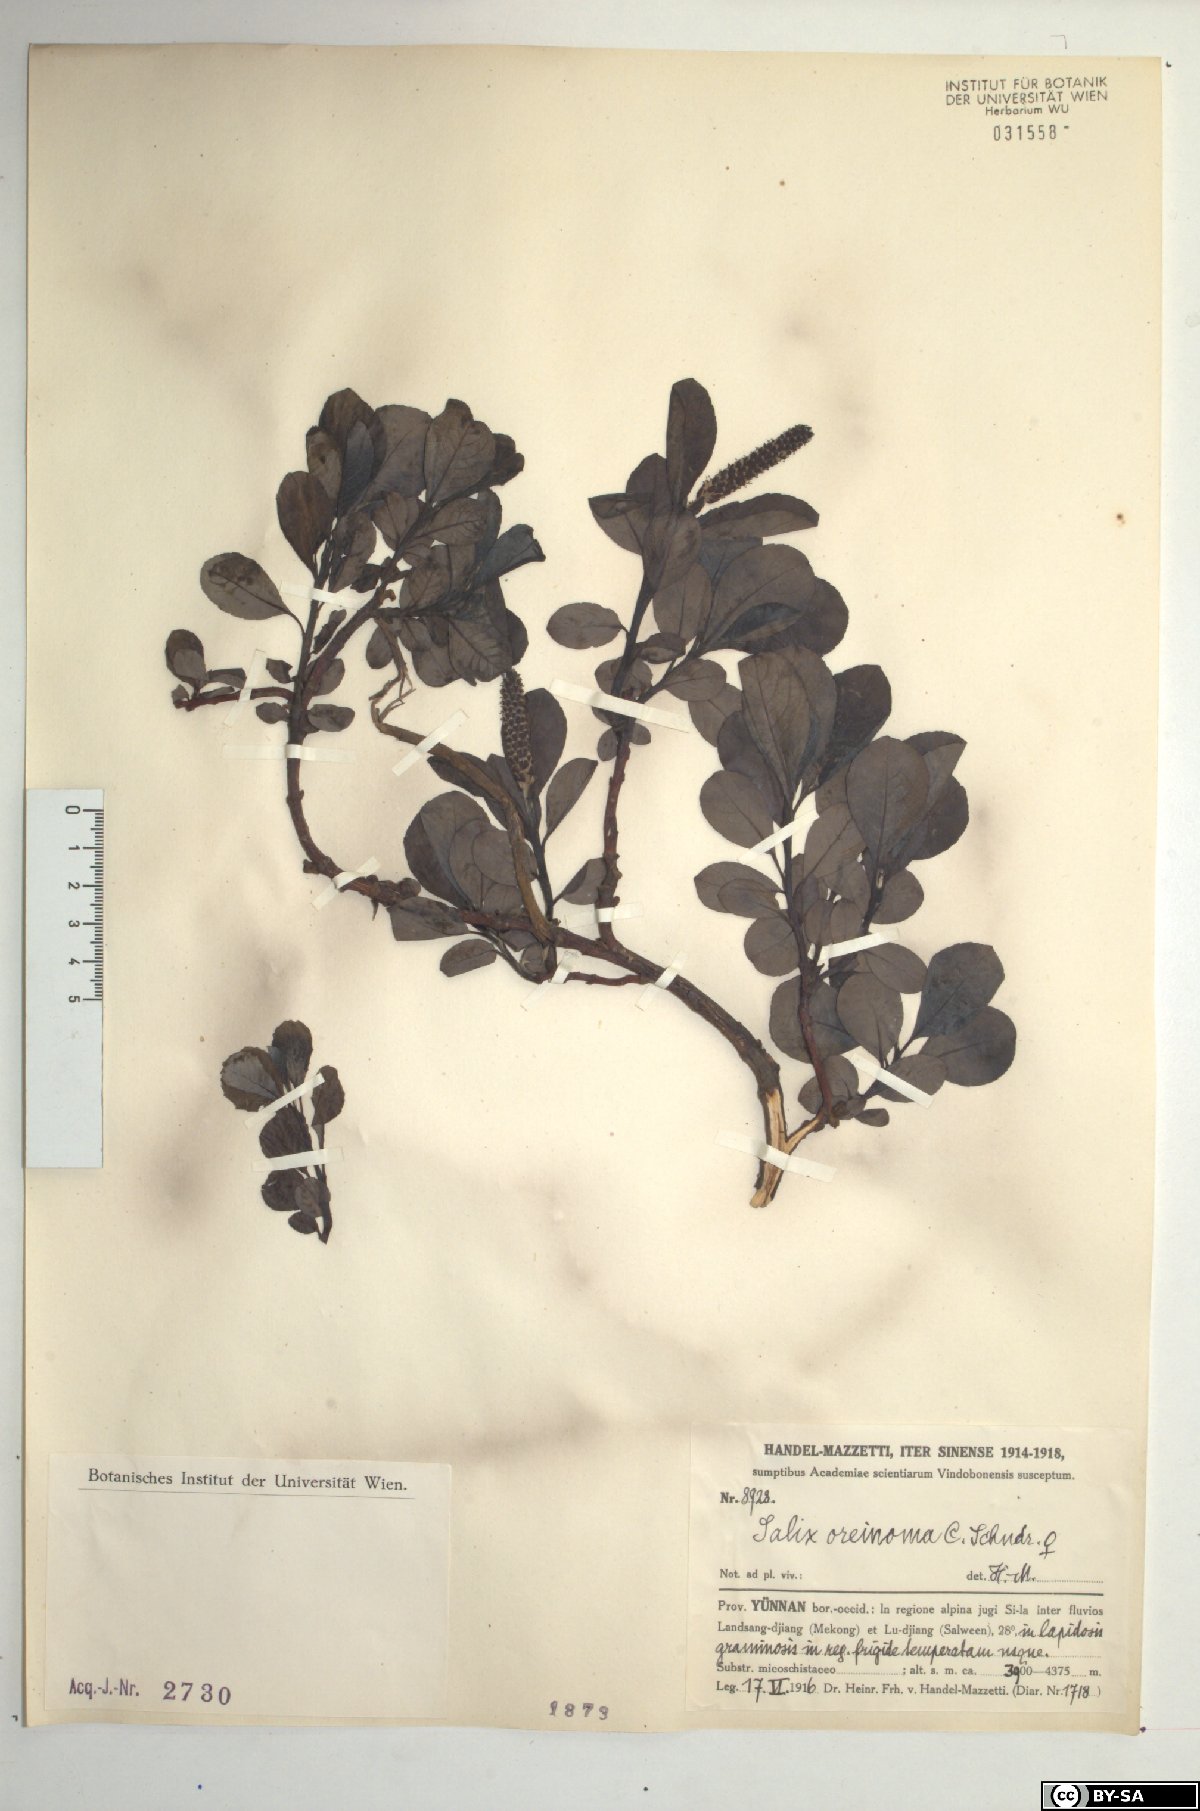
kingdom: Plantae
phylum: Tracheophyta
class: Magnoliopsida
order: Malpighiales
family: Salicaceae
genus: Salix
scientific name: Salix oreinoma
